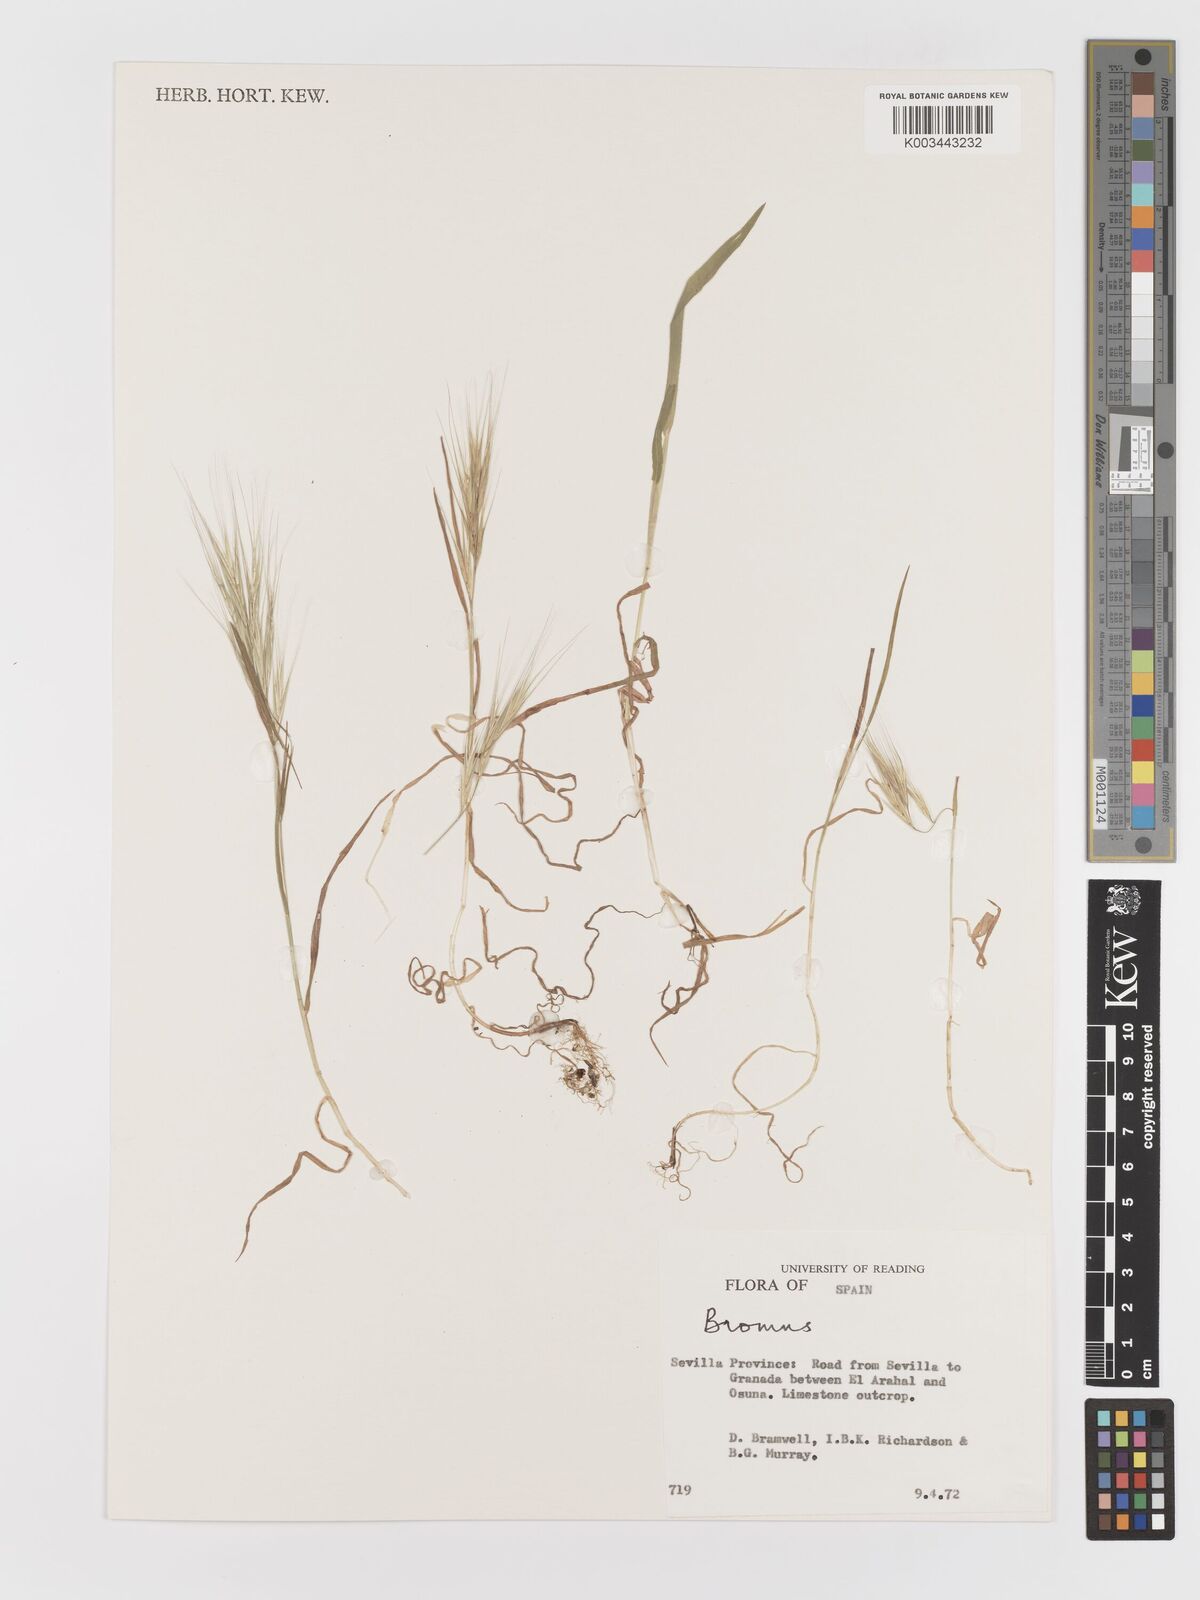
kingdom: Plantae
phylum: Tracheophyta
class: Liliopsida
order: Poales
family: Poaceae
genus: Bromus
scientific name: Bromus
